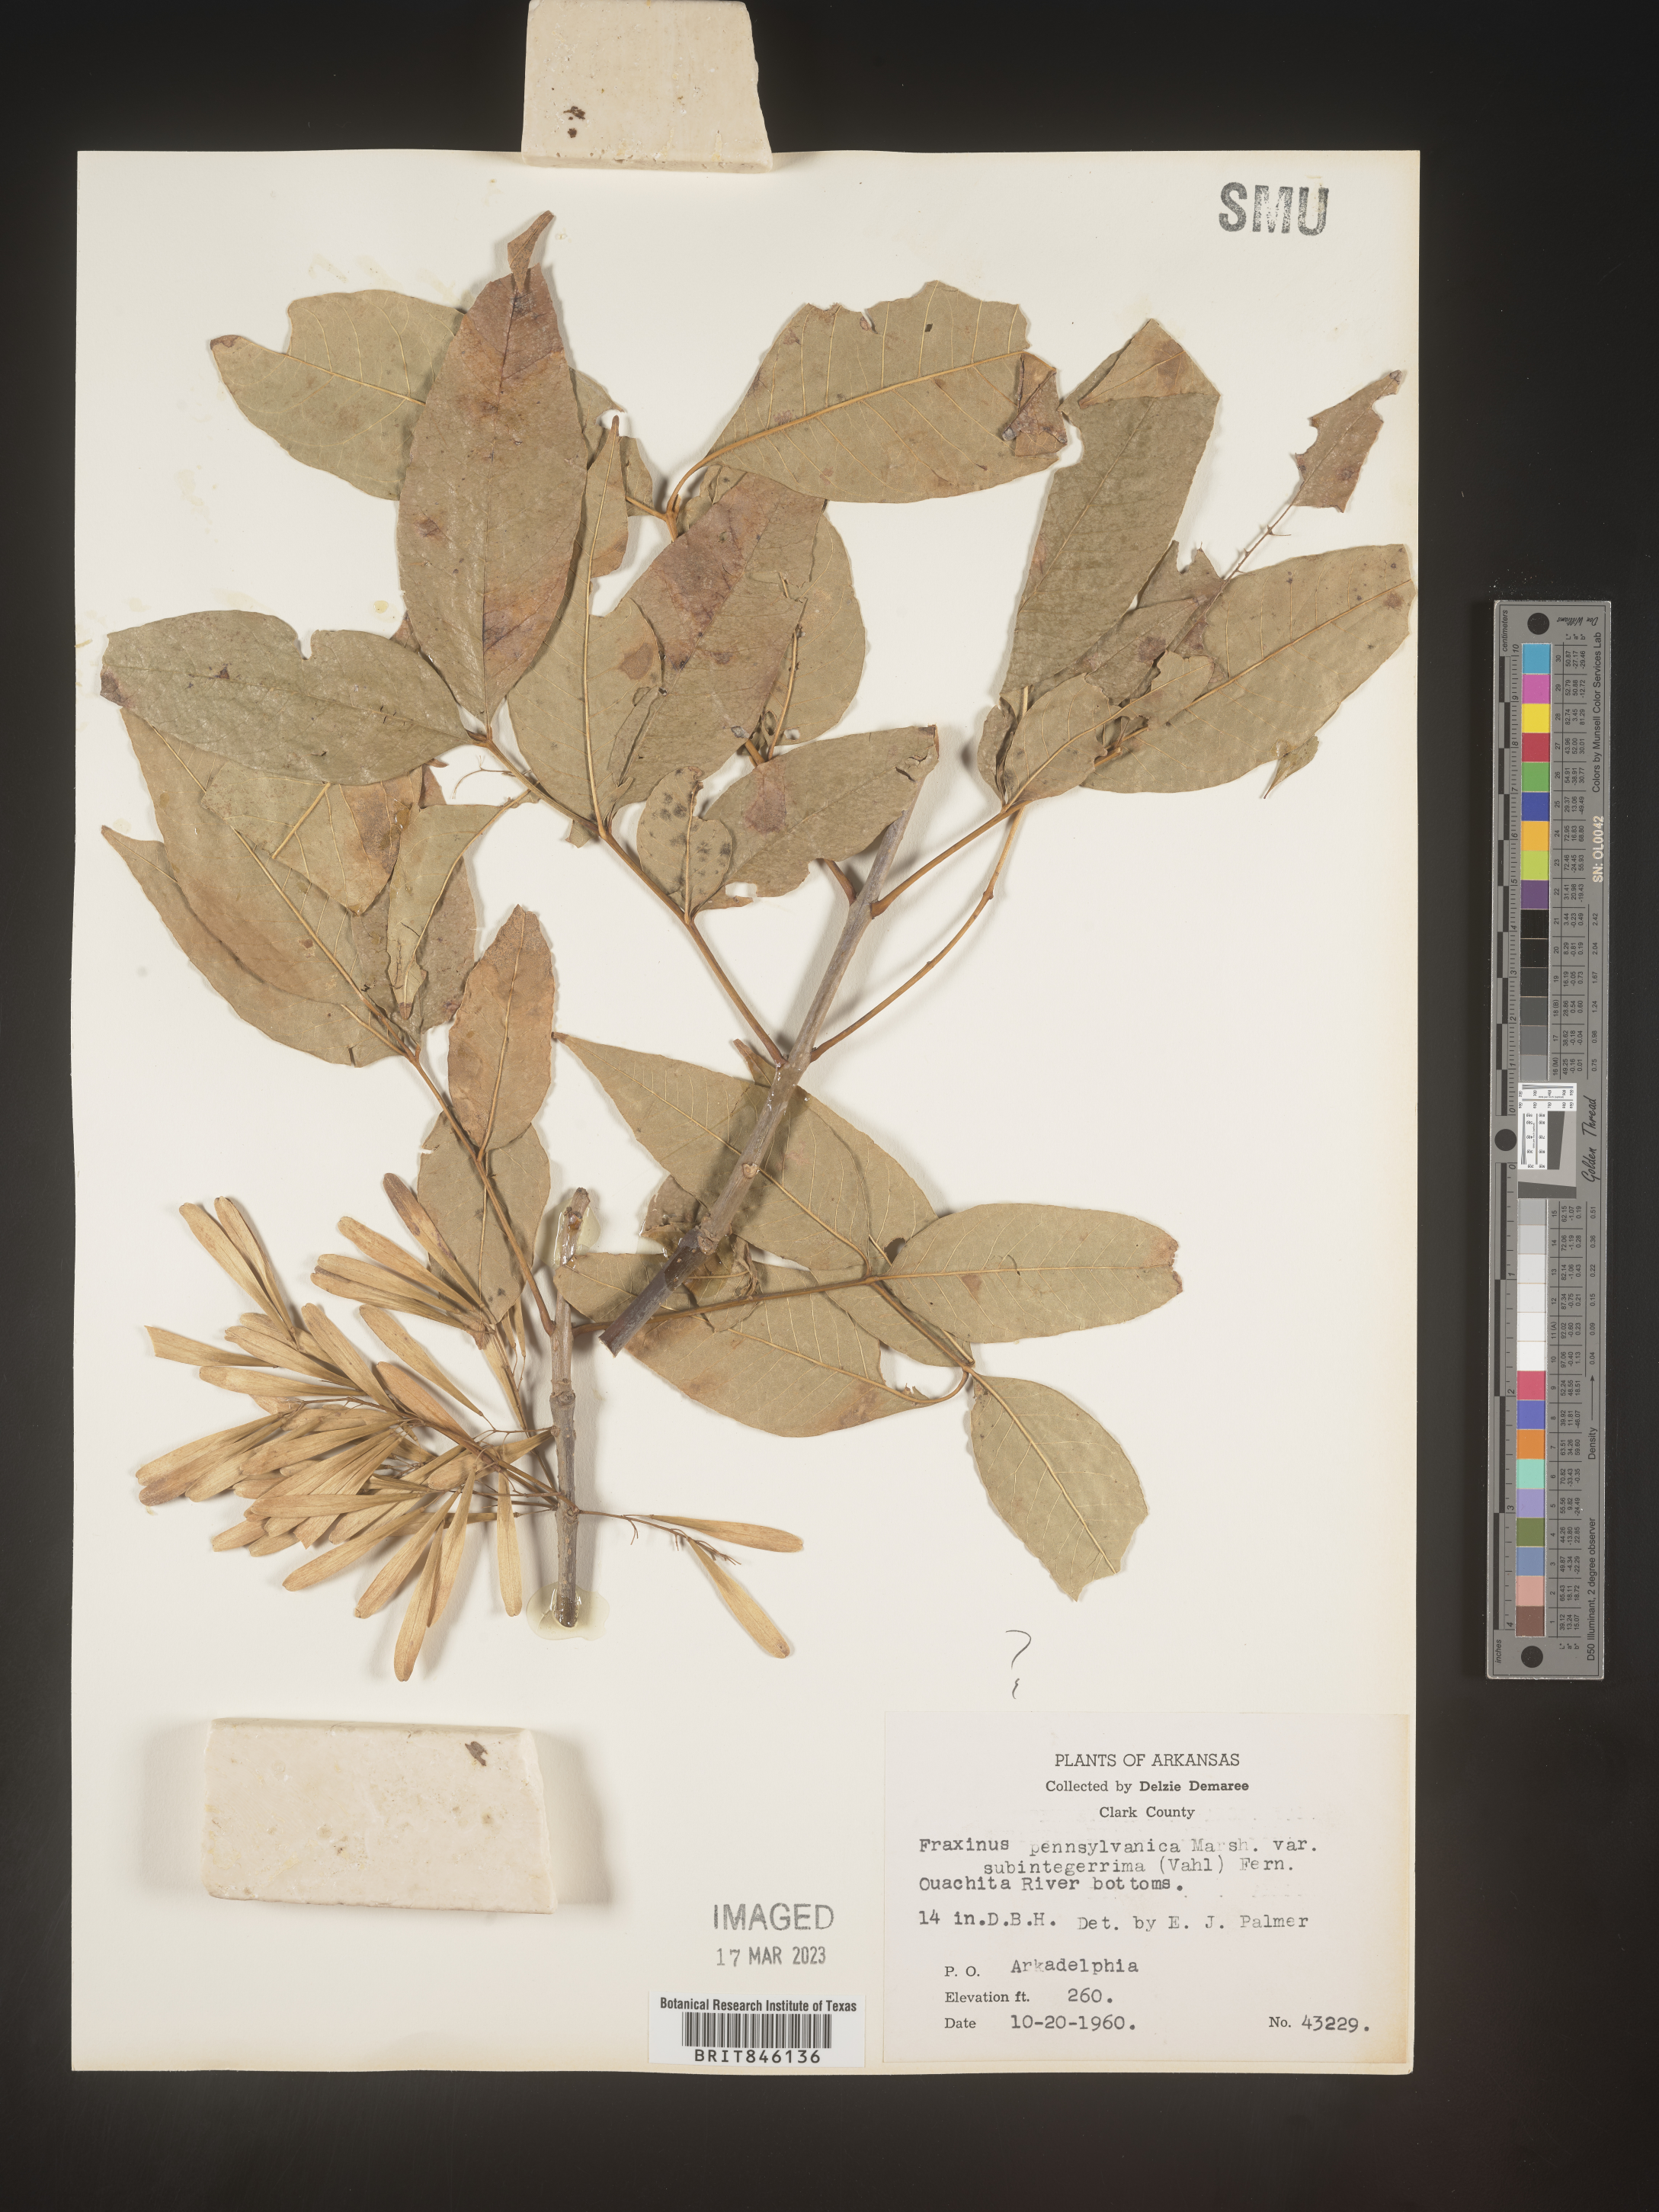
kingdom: Plantae
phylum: Tracheophyta
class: Magnoliopsida
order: Lamiales
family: Oleaceae
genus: Fraxinus
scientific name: Fraxinus pennsylvanica
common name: Green ash
